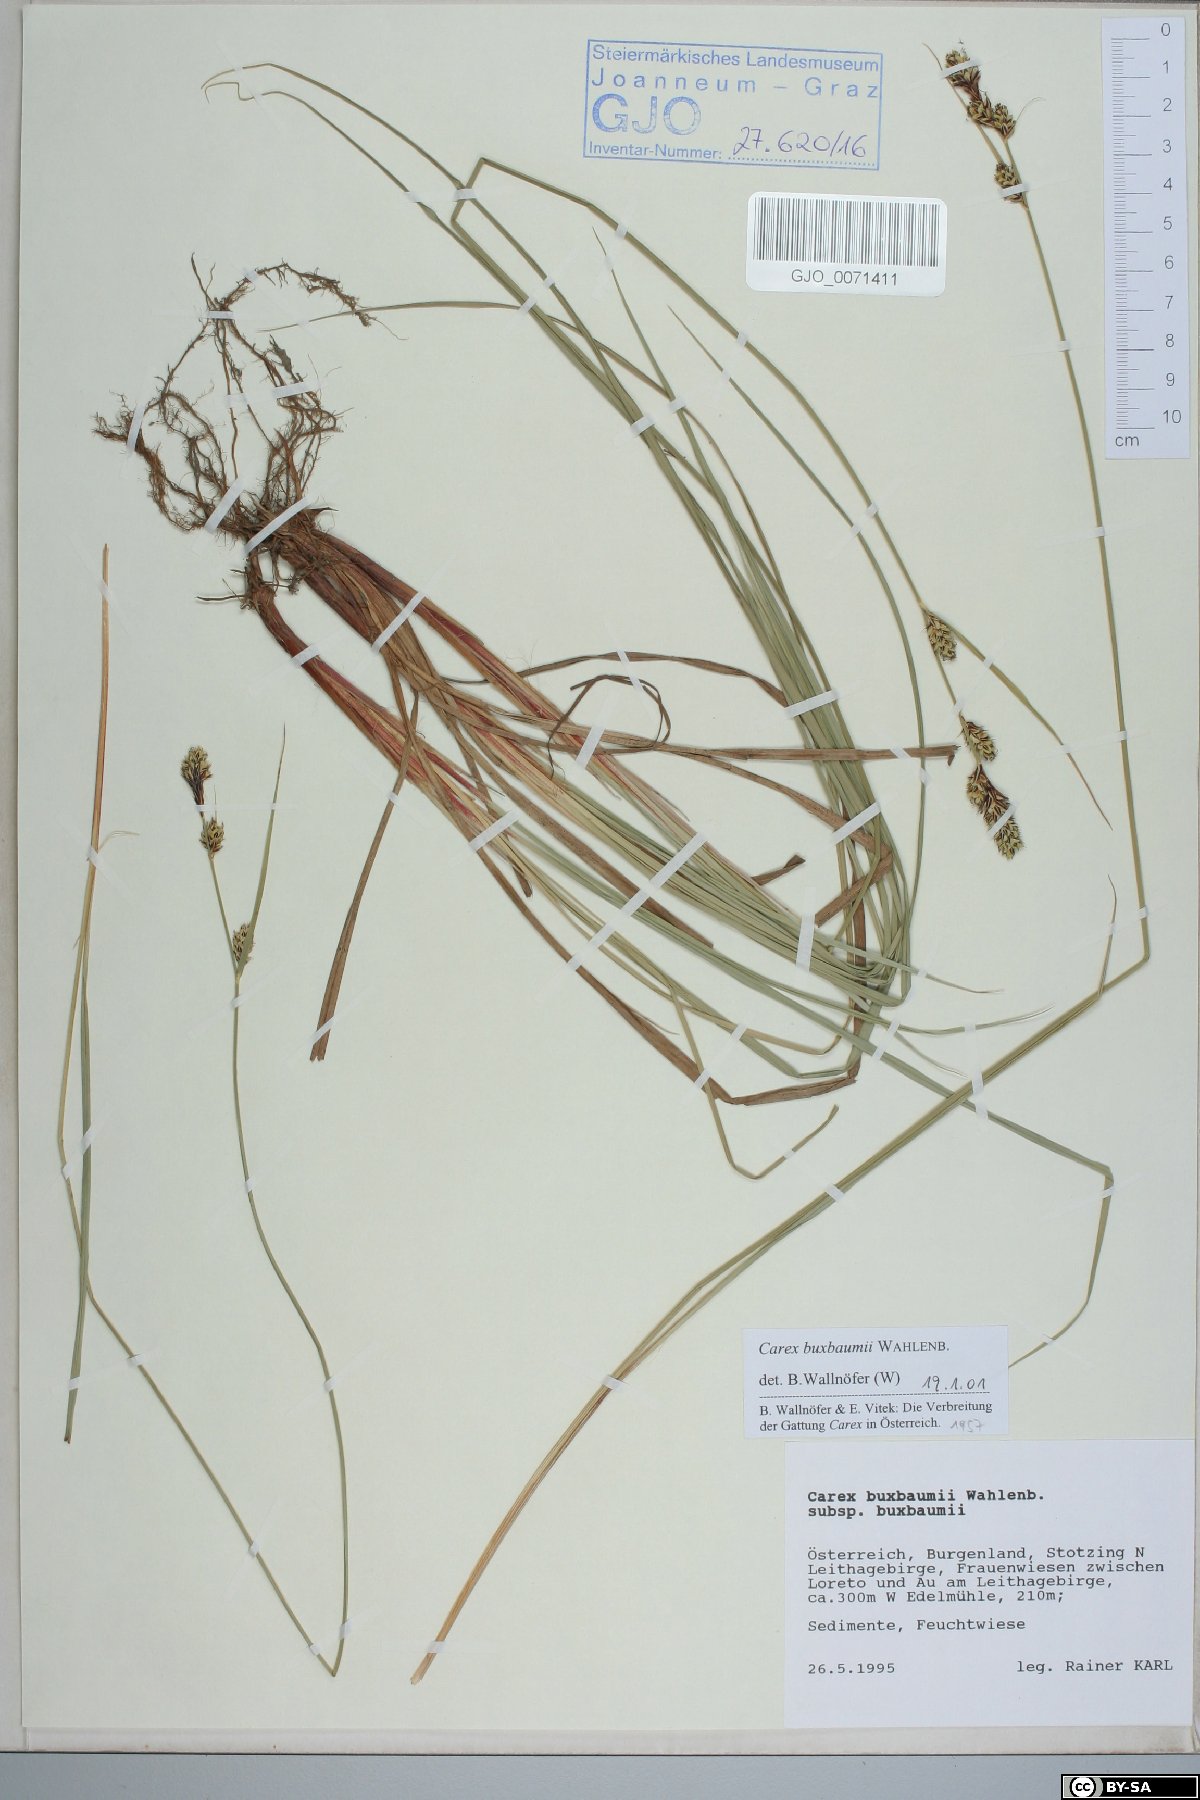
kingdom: Plantae
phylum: Tracheophyta
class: Liliopsida
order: Poales
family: Cyperaceae
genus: Carex
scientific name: Carex buxbaumii
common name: Club sedge
